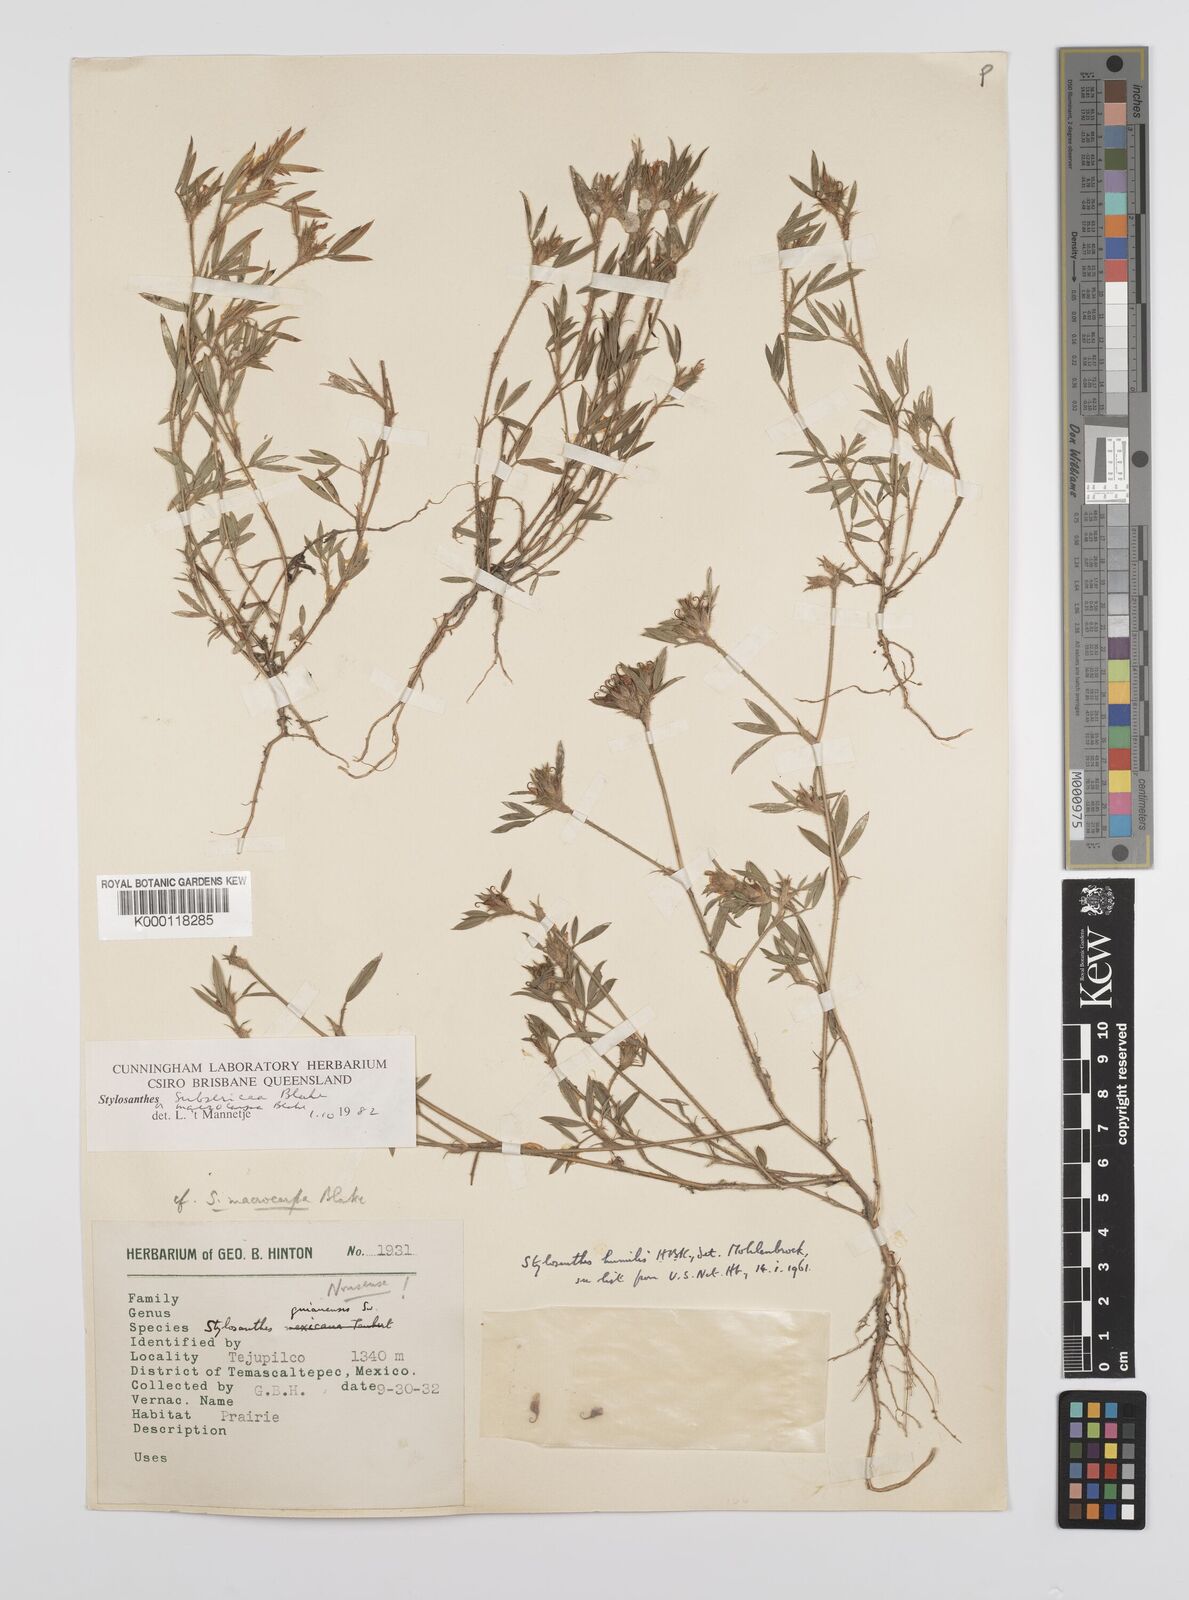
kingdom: Plantae
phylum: Tracheophyta
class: Magnoliopsida
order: Fabales
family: Fabaceae
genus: Stylosanthes
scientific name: Stylosanthes scabra
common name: Pencilflower
